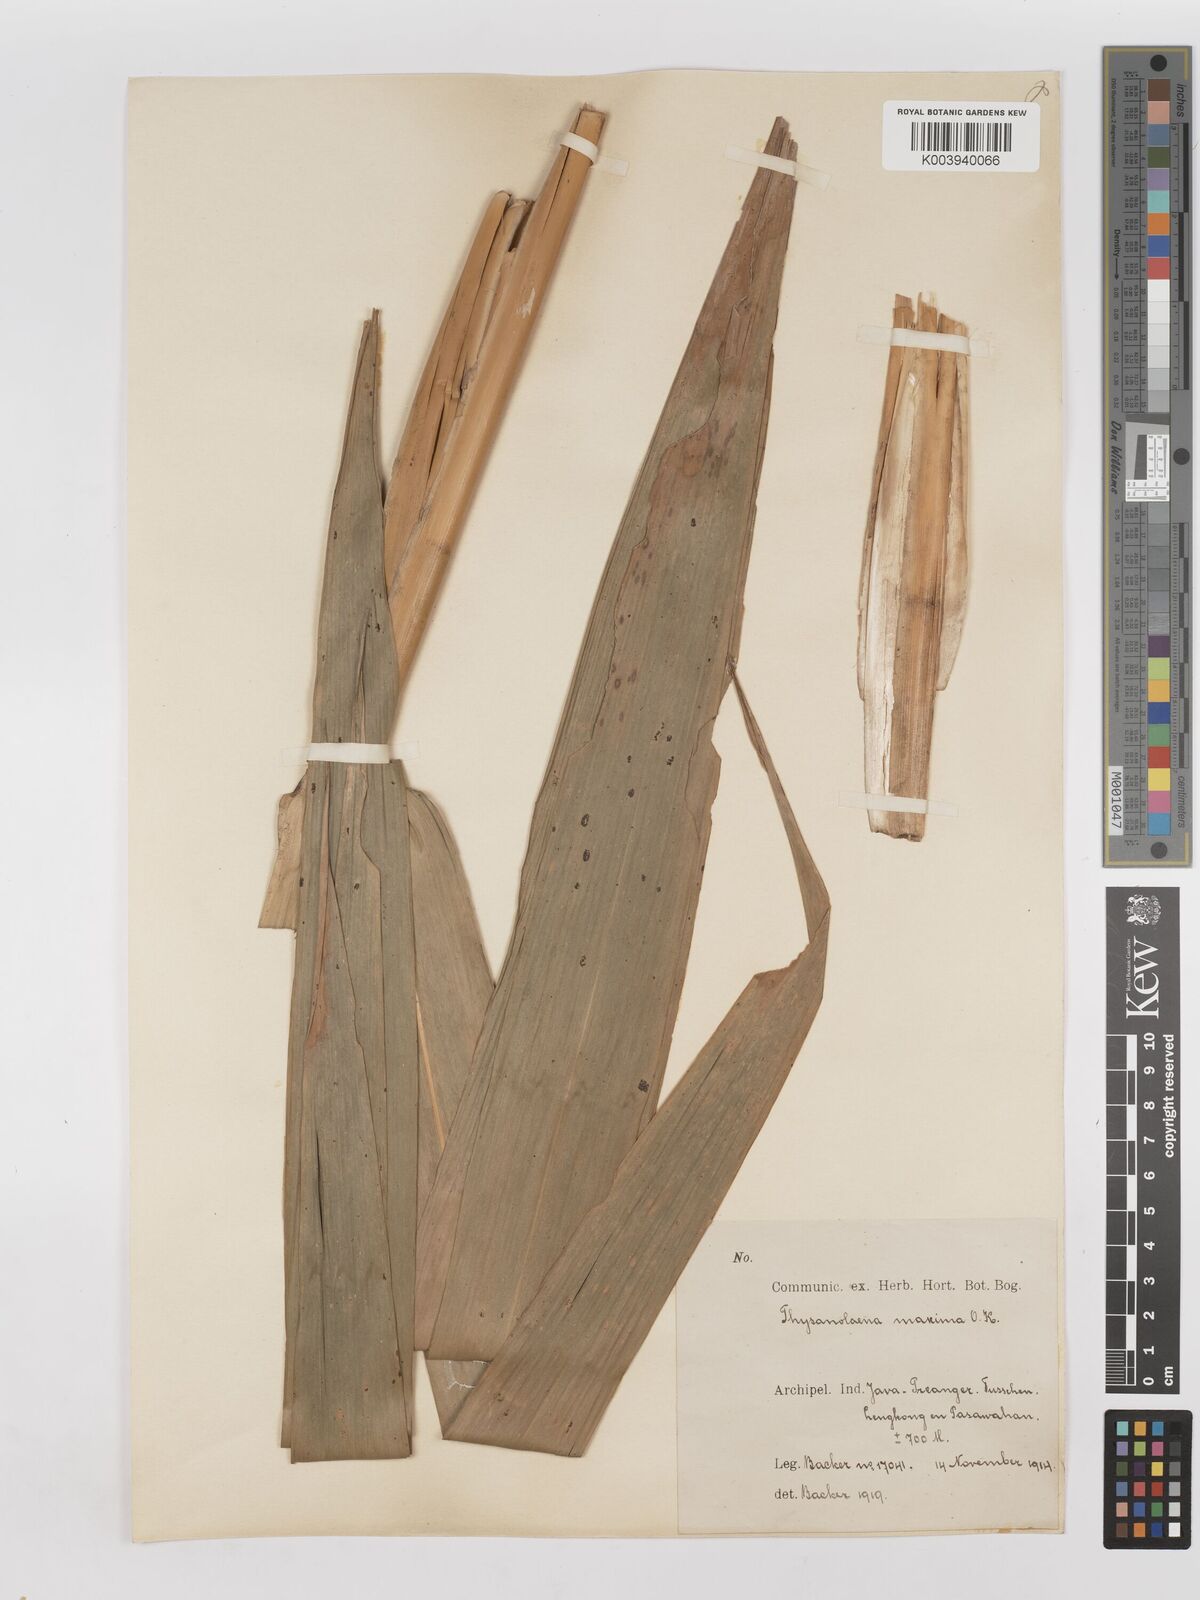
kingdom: Plantae
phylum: Tracheophyta
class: Liliopsida
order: Poales
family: Poaceae
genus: Thysanolaena
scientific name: Thysanolaena latifolia
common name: Tiger grass
